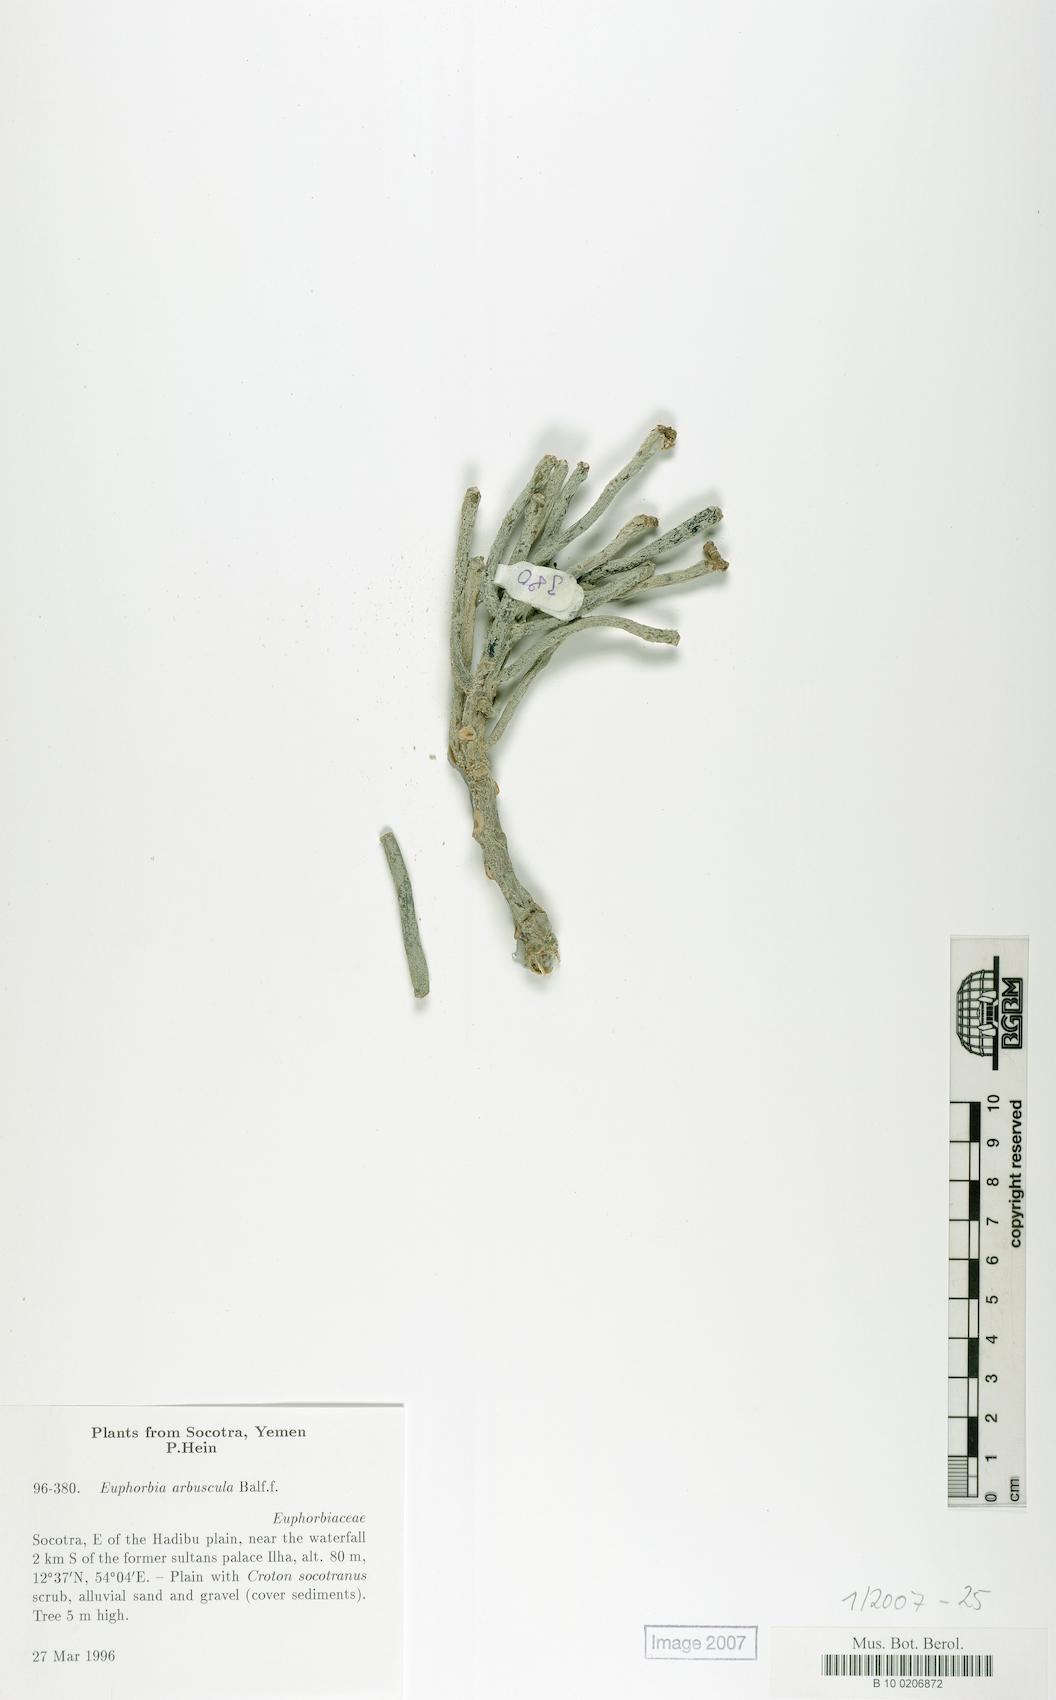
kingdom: Plantae
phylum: Tracheophyta
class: Magnoliopsida
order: Malpighiales
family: Euphorbiaceae
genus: Euphorbia
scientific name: Euphorbia arbuscula
